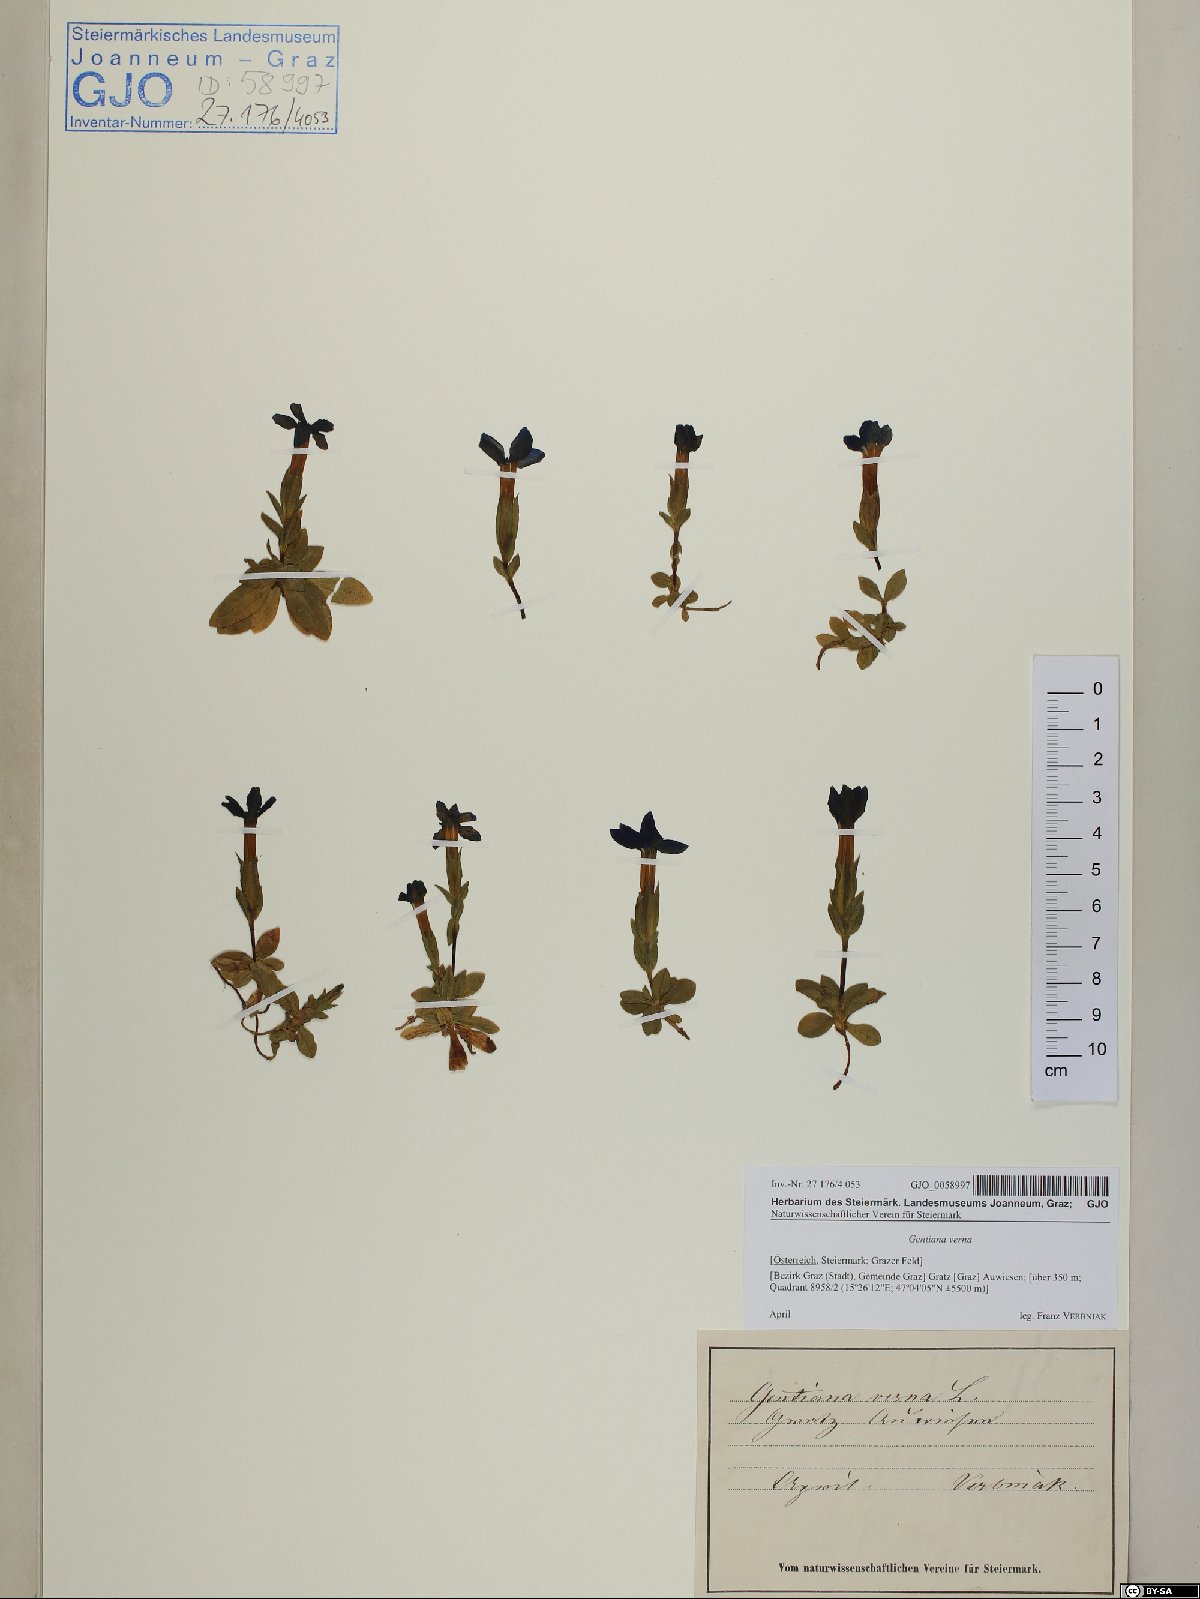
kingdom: Plantae
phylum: Tracheophyta
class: Magnoliopsida
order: Gentianales
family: Gentianaceae
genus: Gentiana
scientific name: Gentiana verna
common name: Spring gentian
